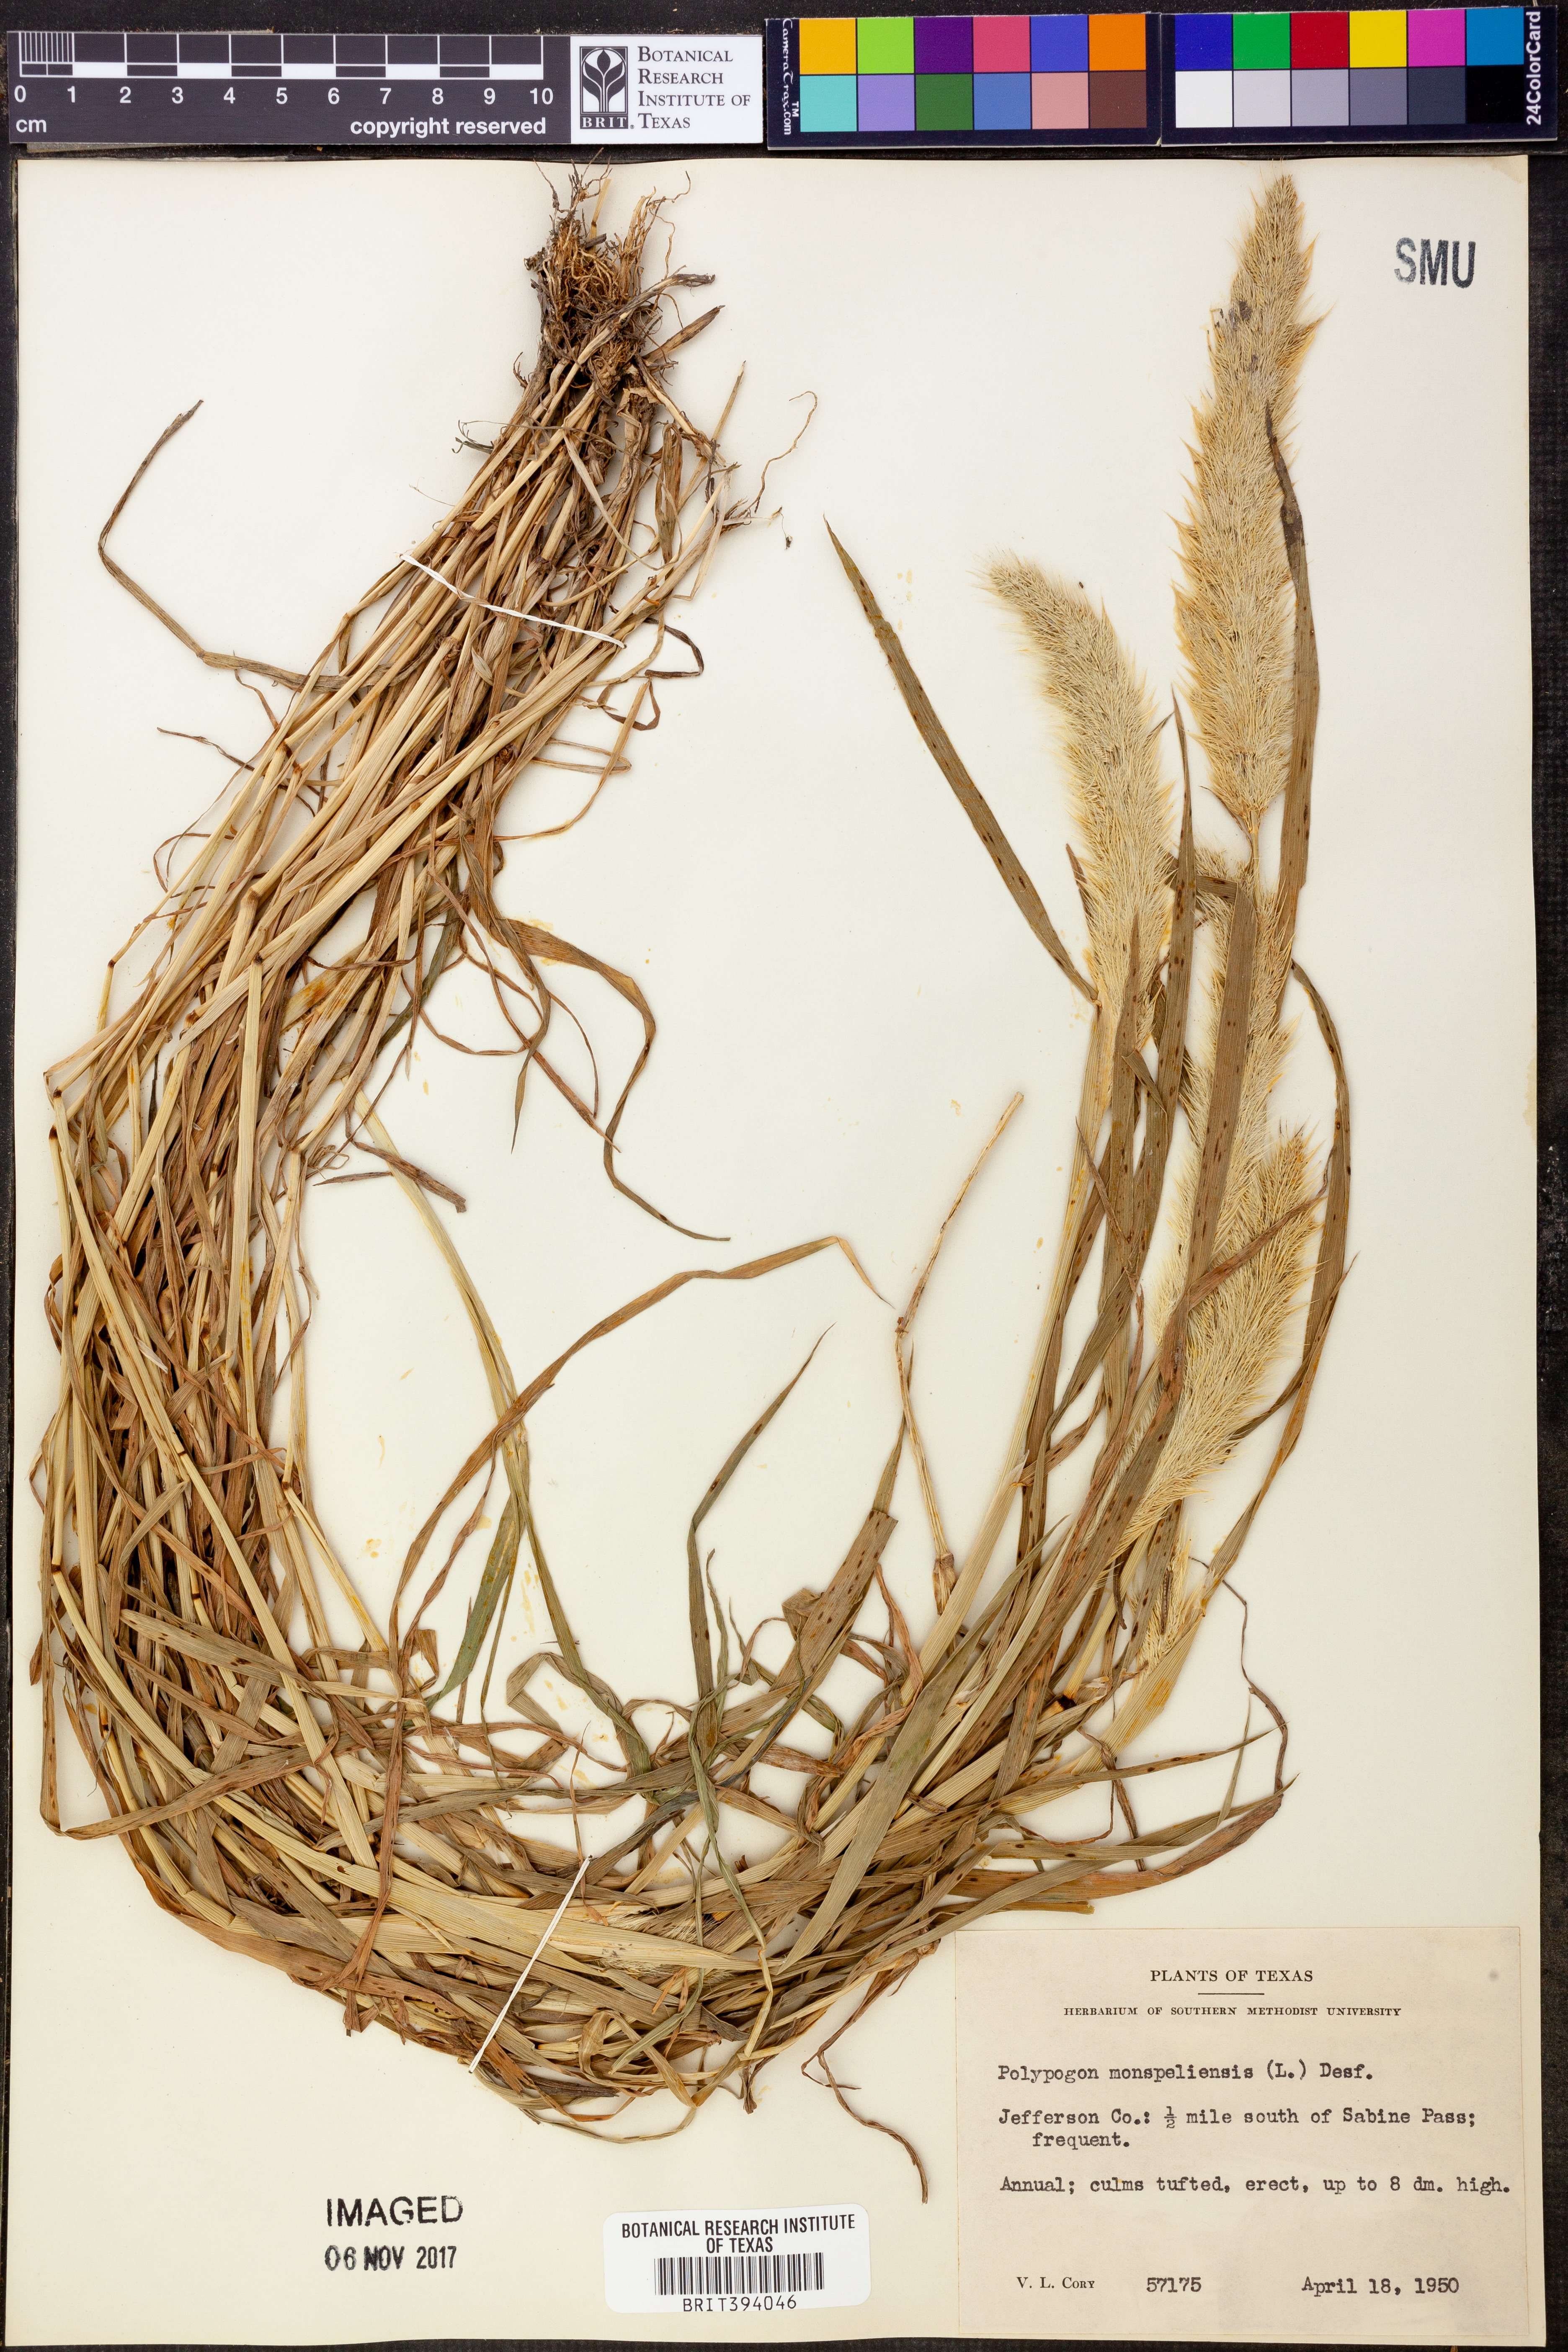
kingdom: Plantae
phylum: Tracheophyta
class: Liliopsida
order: Poales
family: Poaceae
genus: Polypogon
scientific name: Polypogon monspeliensis
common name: Annual rabbitsfoot grass
